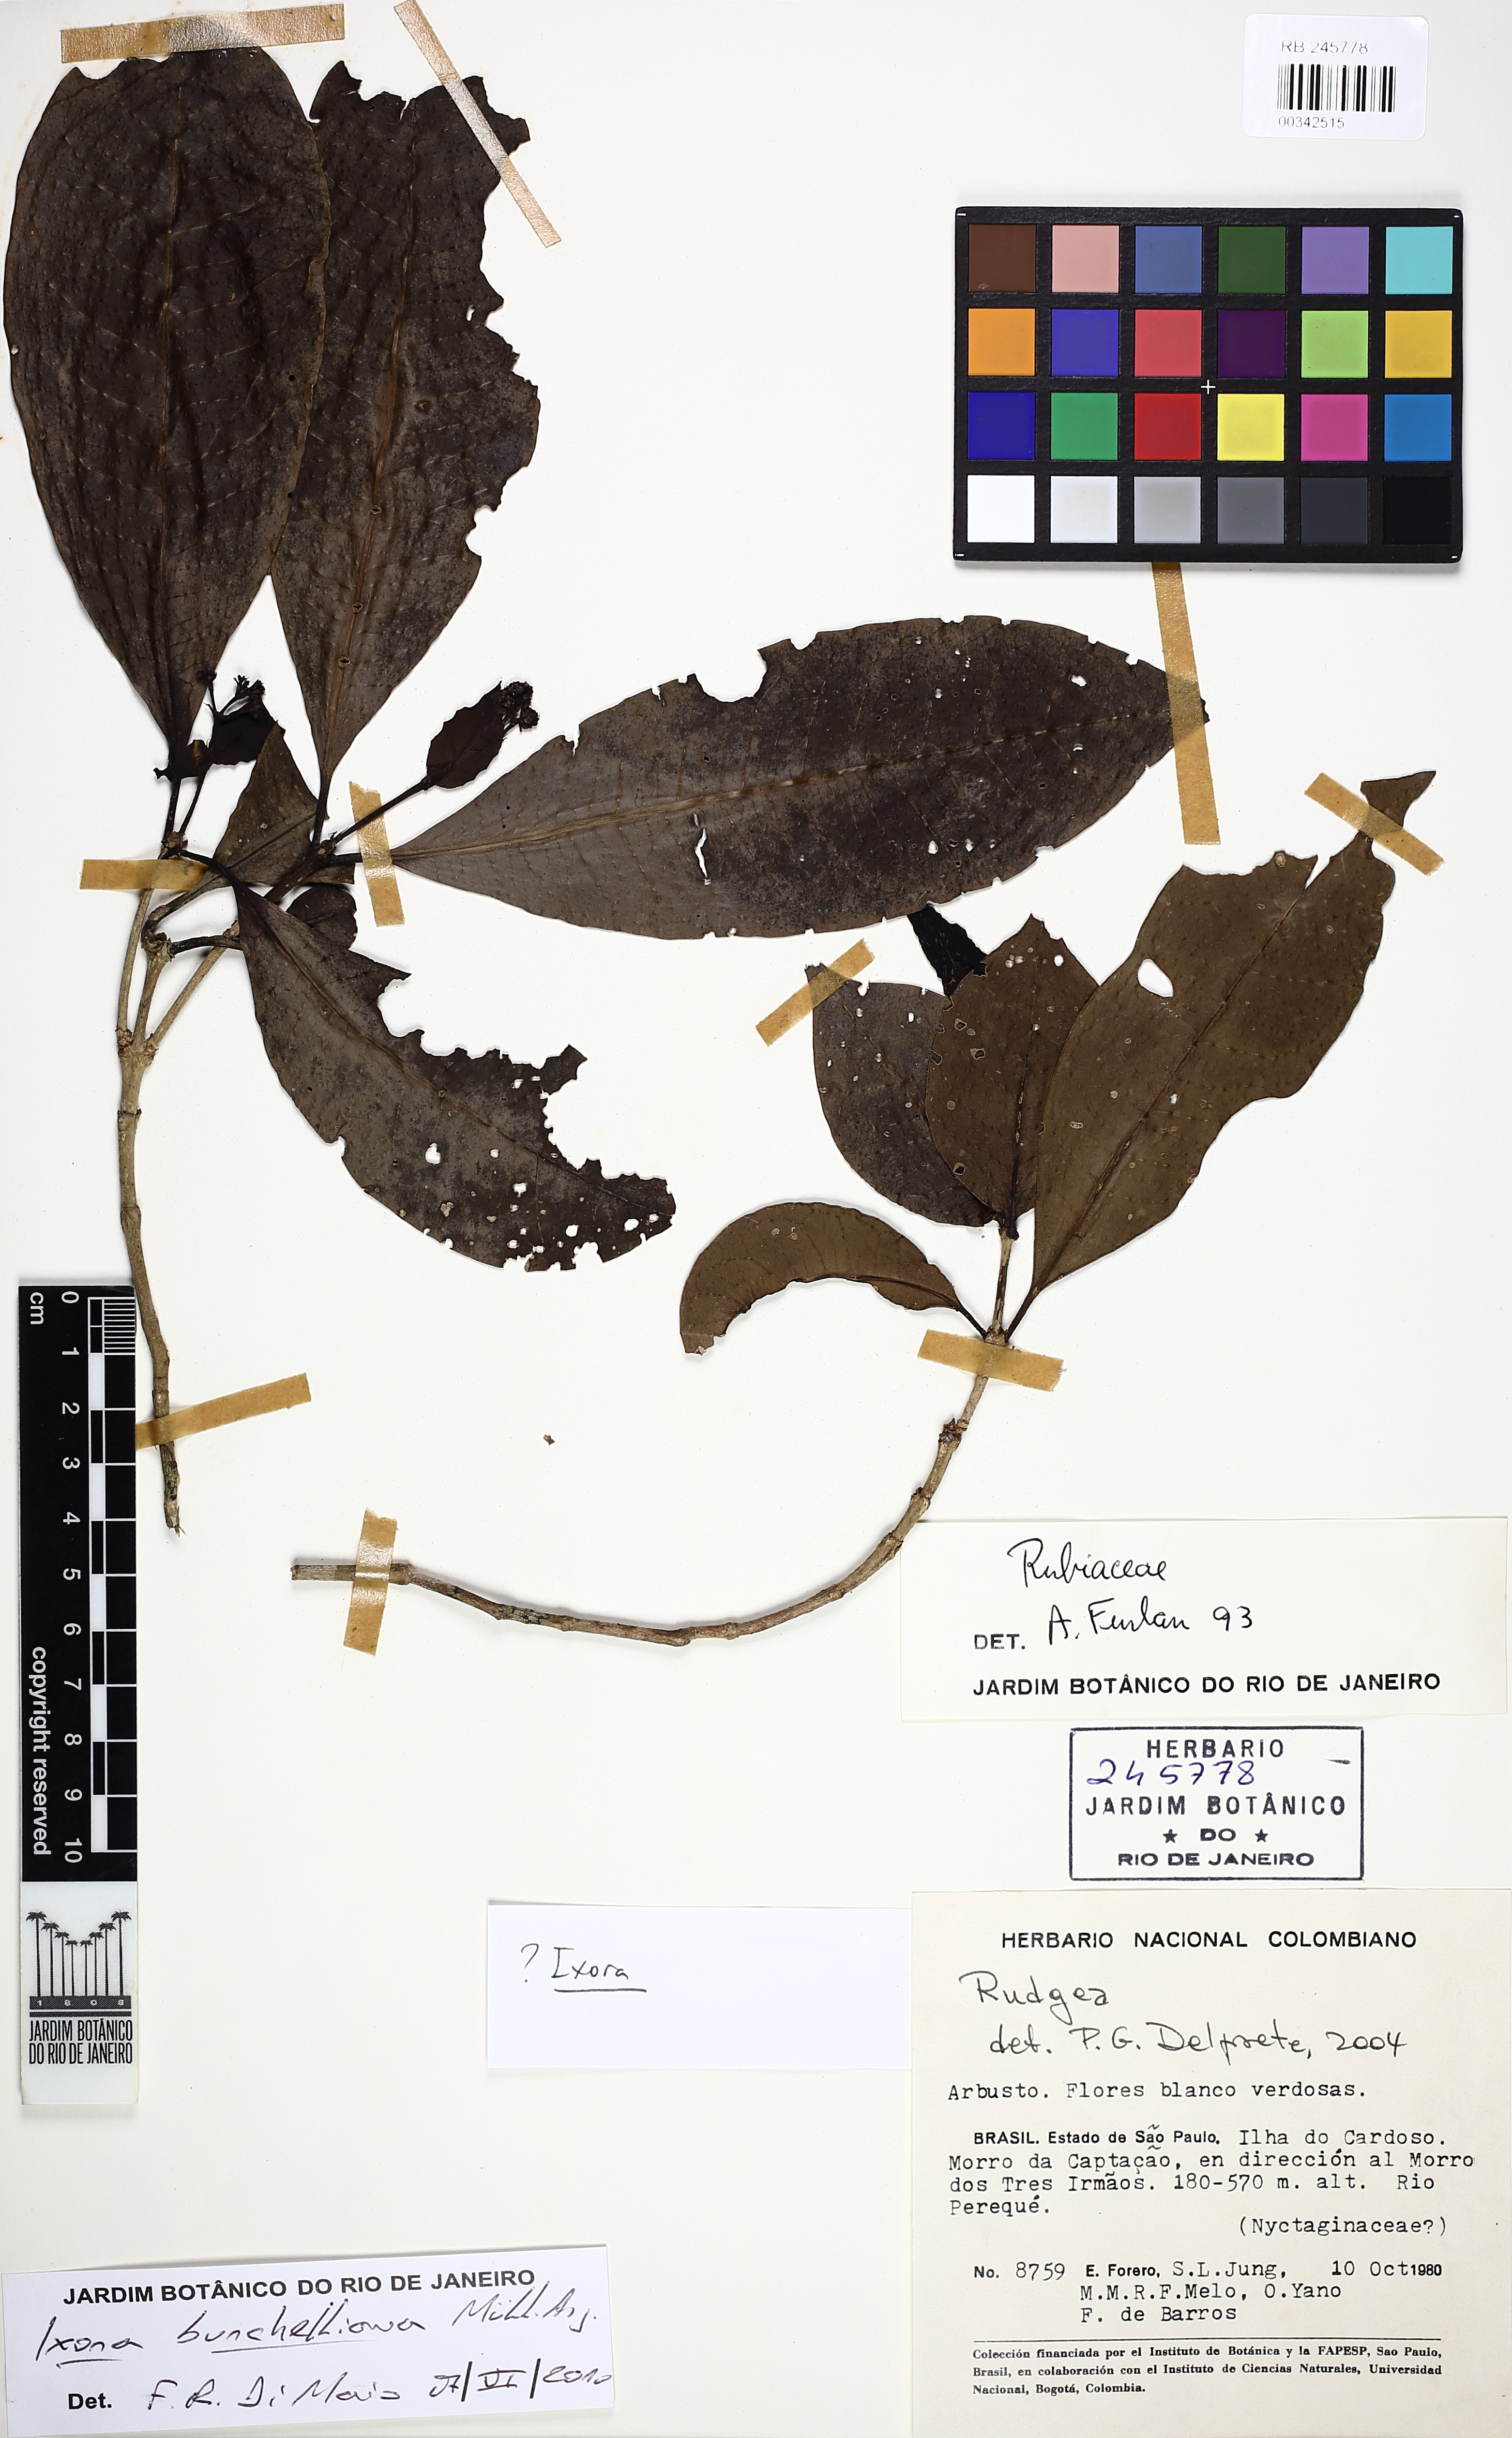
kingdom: Plantae
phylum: Tracheophyta
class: Magnoliopsida
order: Gentianales
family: Rubiaceae
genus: Ixora
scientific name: Ixora heterodoxa
